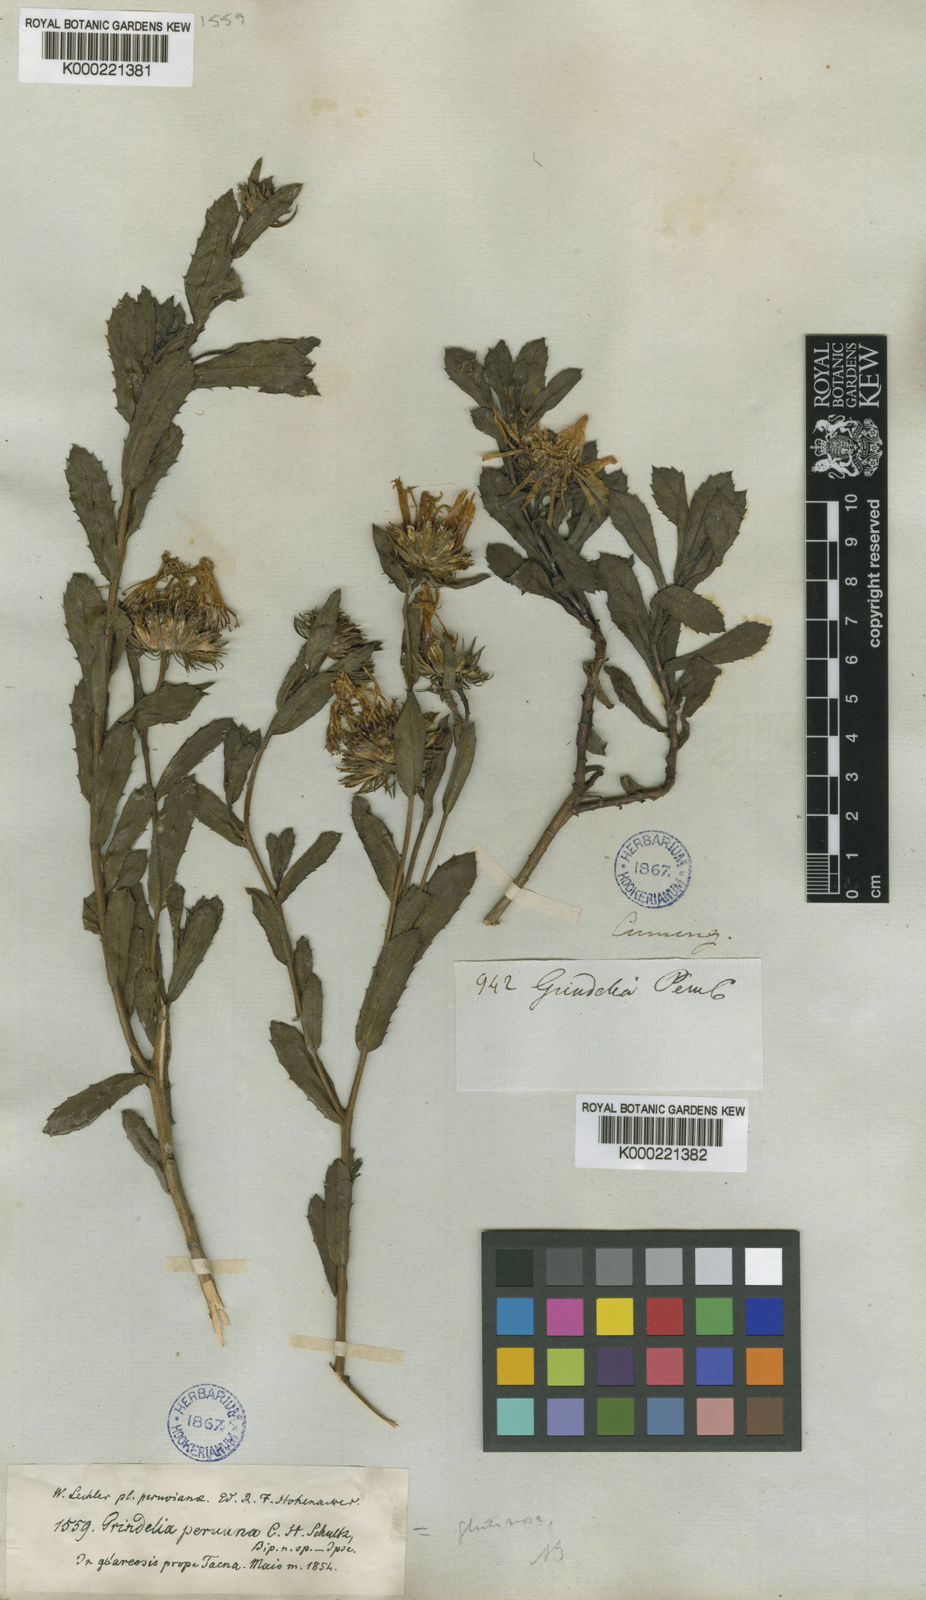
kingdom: Plantae
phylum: Tracheophyta
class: Magnoliopsida
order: Asterales
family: Asteraceae
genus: Grindelia
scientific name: Grindelia glutinosa
